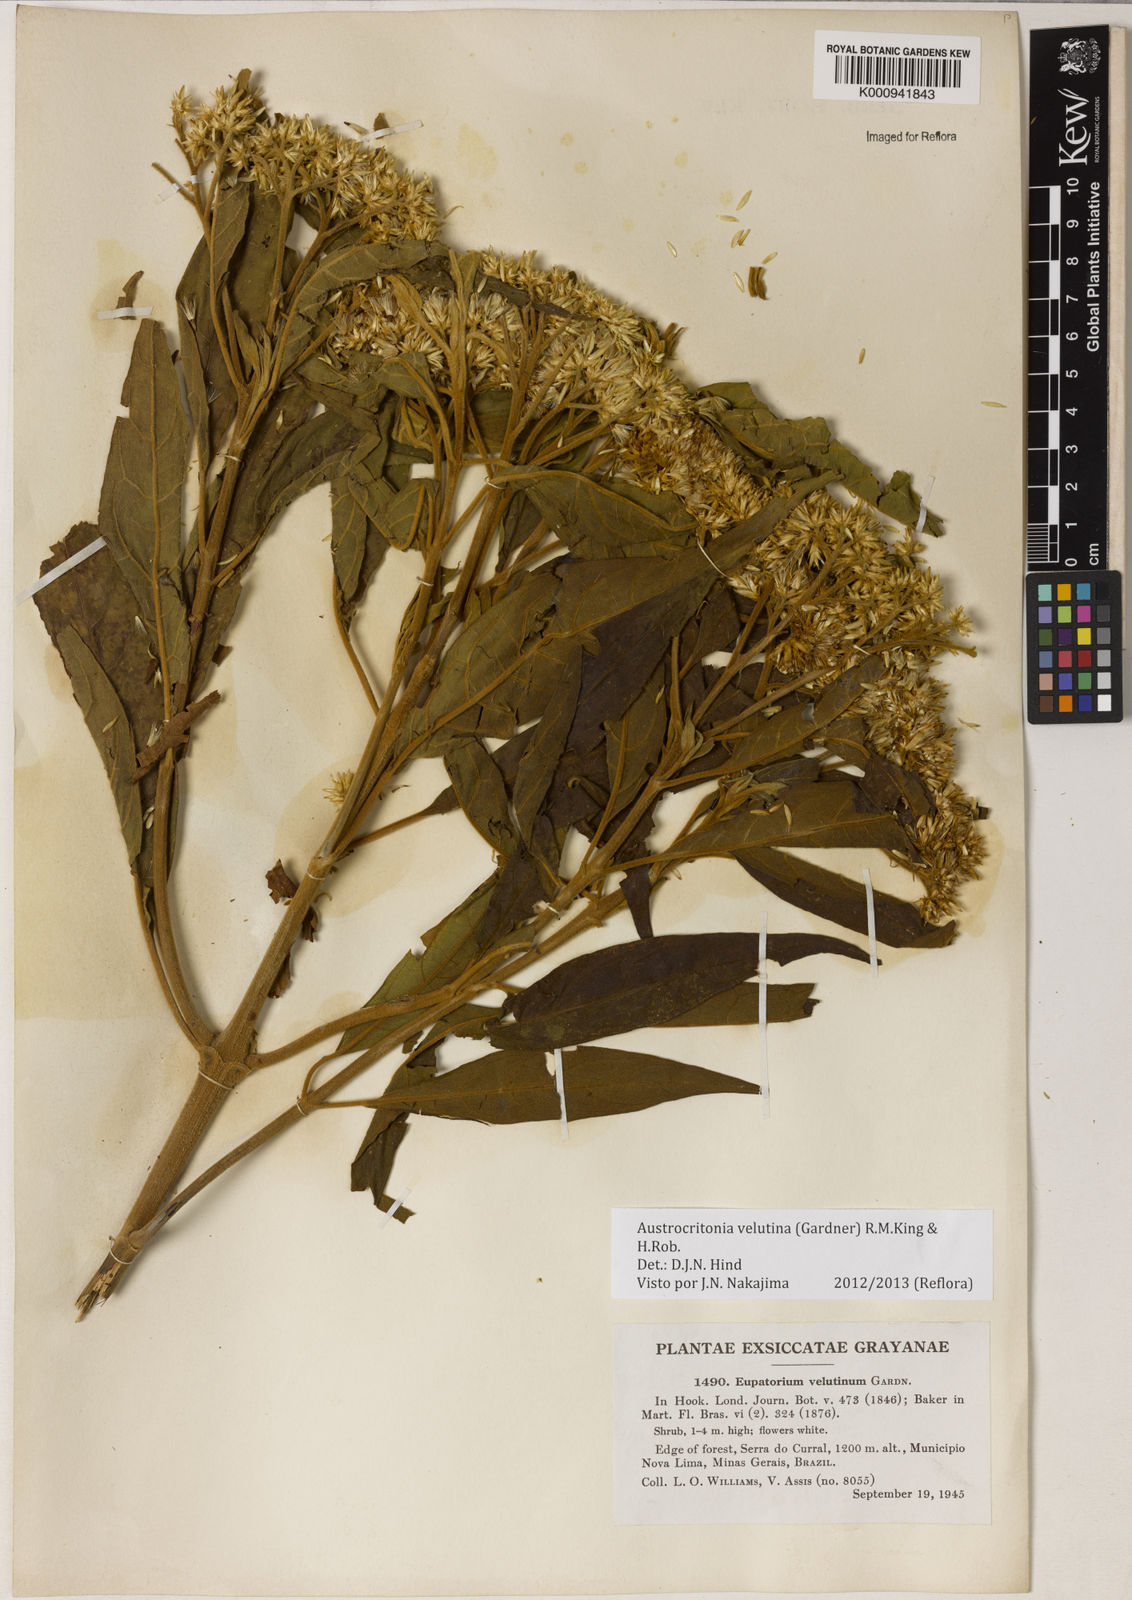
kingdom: Plantae
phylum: Tracheophyta
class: Magnoliopsida
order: Asterales
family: Asteraceae
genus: Austrocritonia
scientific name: Austrocritonia velutina
